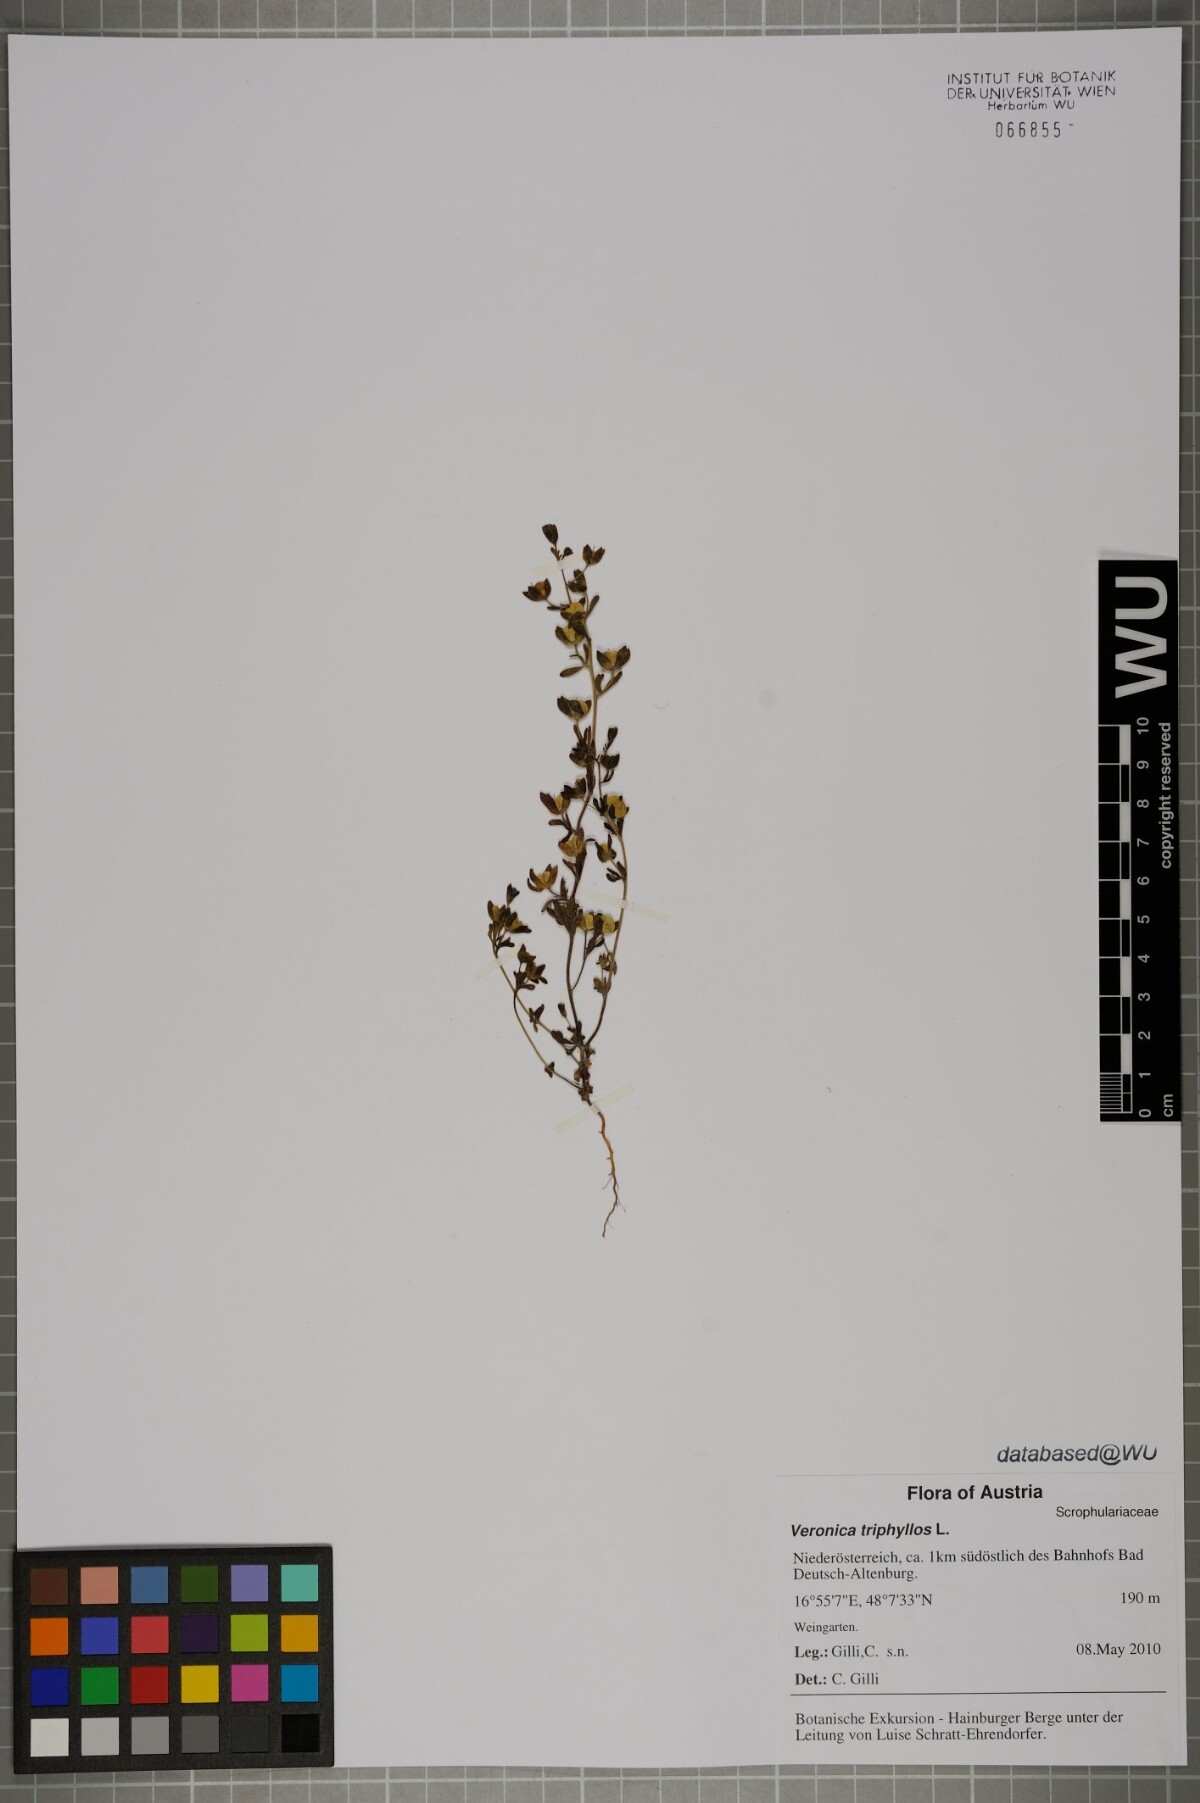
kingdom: Plantae
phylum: Tracheophyta
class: Magnoliopsida
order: Lamiales
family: Plantaginaceae
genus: Veronica
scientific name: Veronica triphyllos
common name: Fingered speedwell
